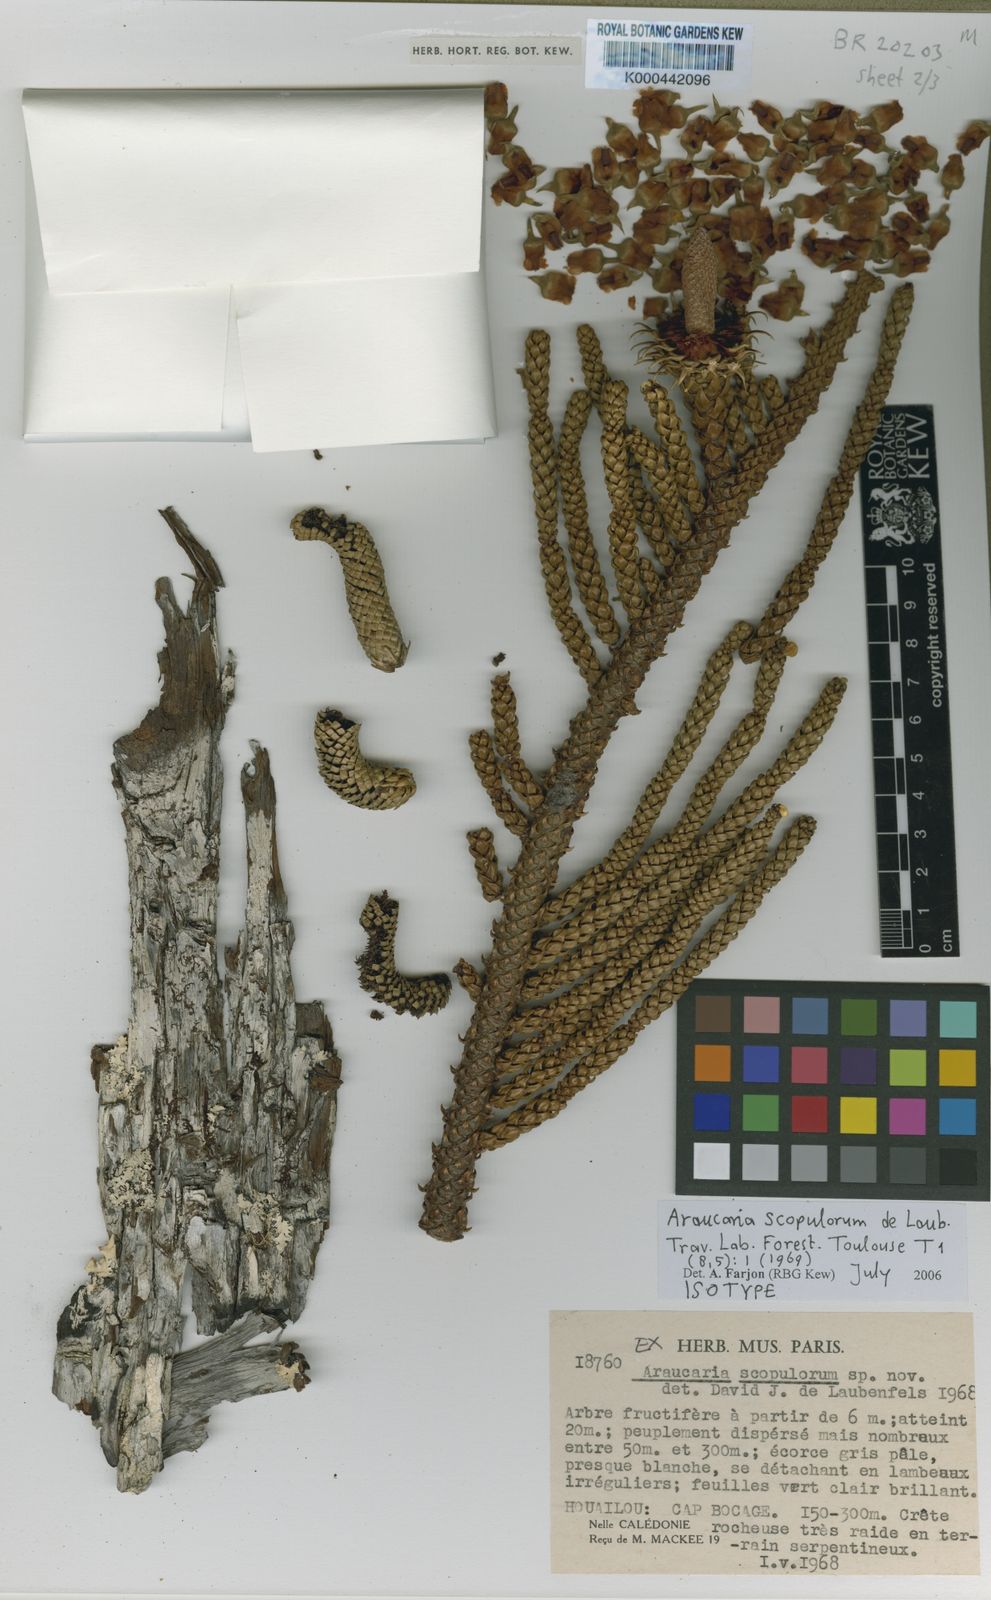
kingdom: Plantae
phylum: Tracheophyta
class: Pinopsida
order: Pinales
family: Araucariaceae
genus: Araucaria
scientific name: Araucaria scopulorum
